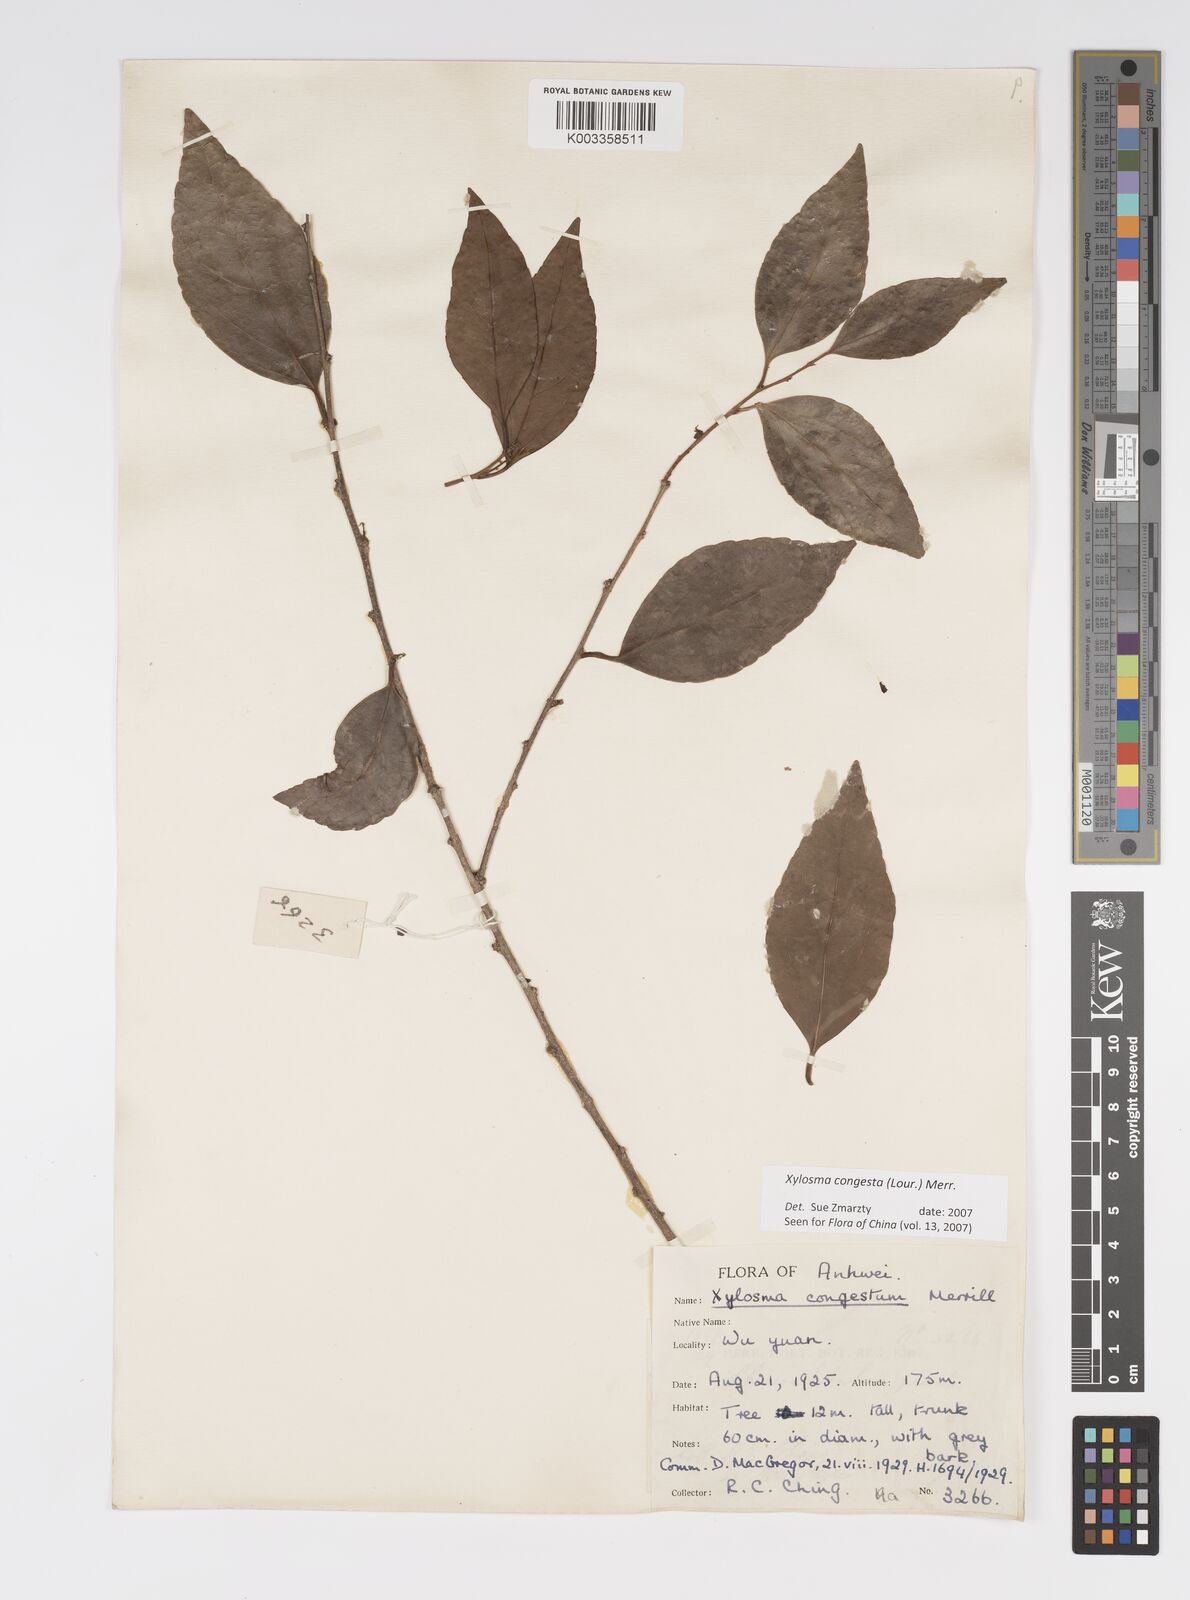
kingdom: Plantae
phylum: Tracheophyta
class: Magnoliopsida
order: Malpighiales
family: Salicaceae
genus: Xylosma
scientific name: Xylosma racemosum
